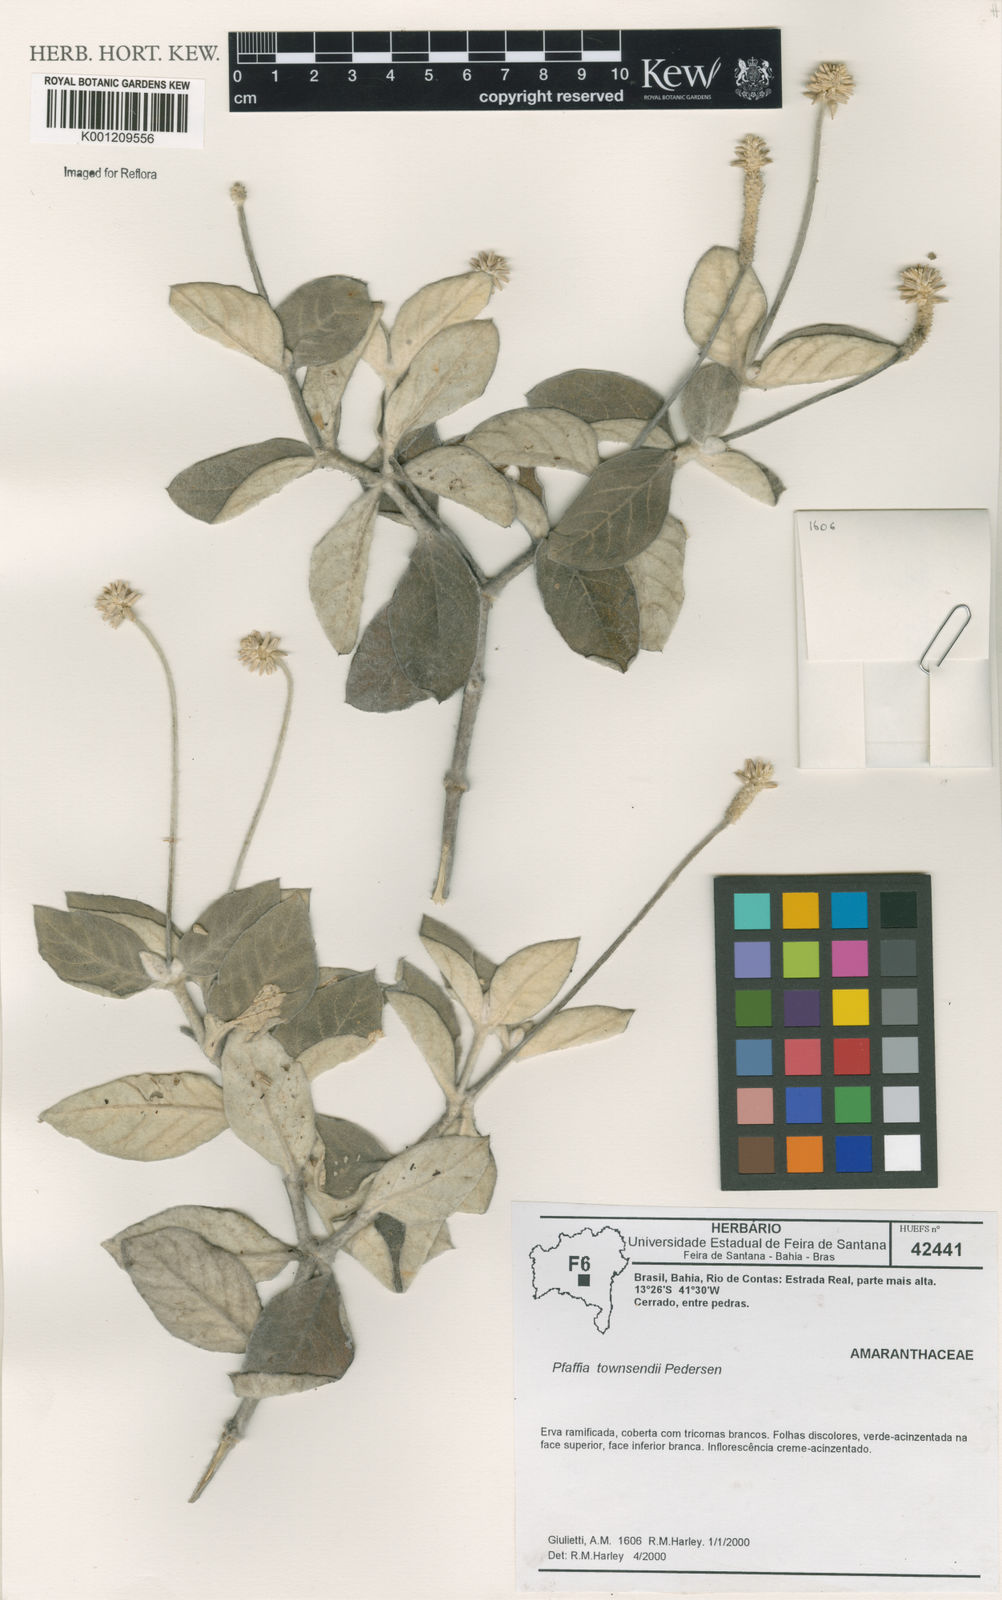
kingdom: Plantae
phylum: Tracheophyta
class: Magnoliopsida
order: Caryophyllales
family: Amaranthaceae
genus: Pfaffia
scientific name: Pfaffia townsendii
